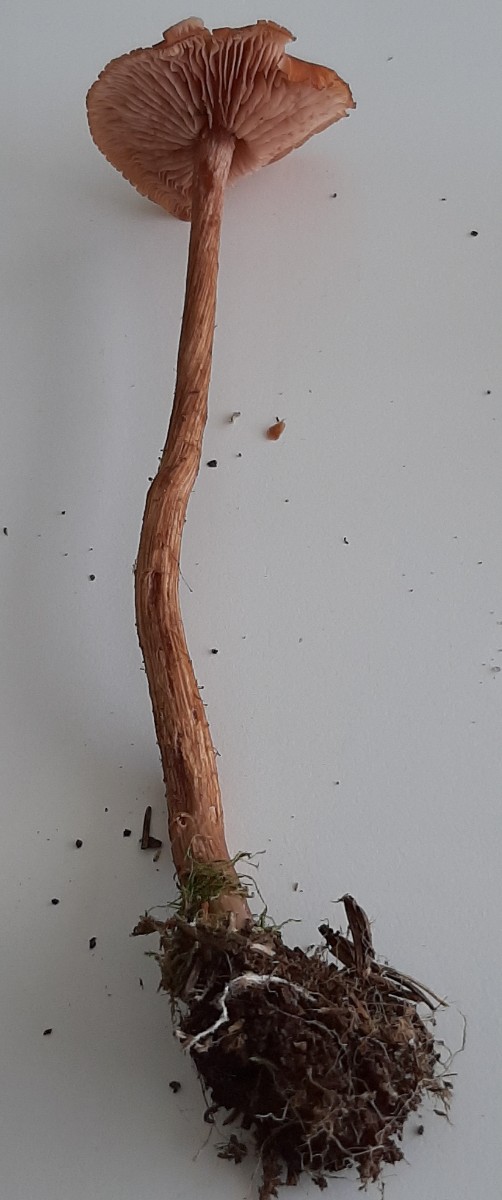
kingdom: Fungi
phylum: Basidiomycota
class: Agaricomycetes
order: Agaricales
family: Hydnangiaceae
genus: Laccaria
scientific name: Laccaria proxima
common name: stor ametysthat
